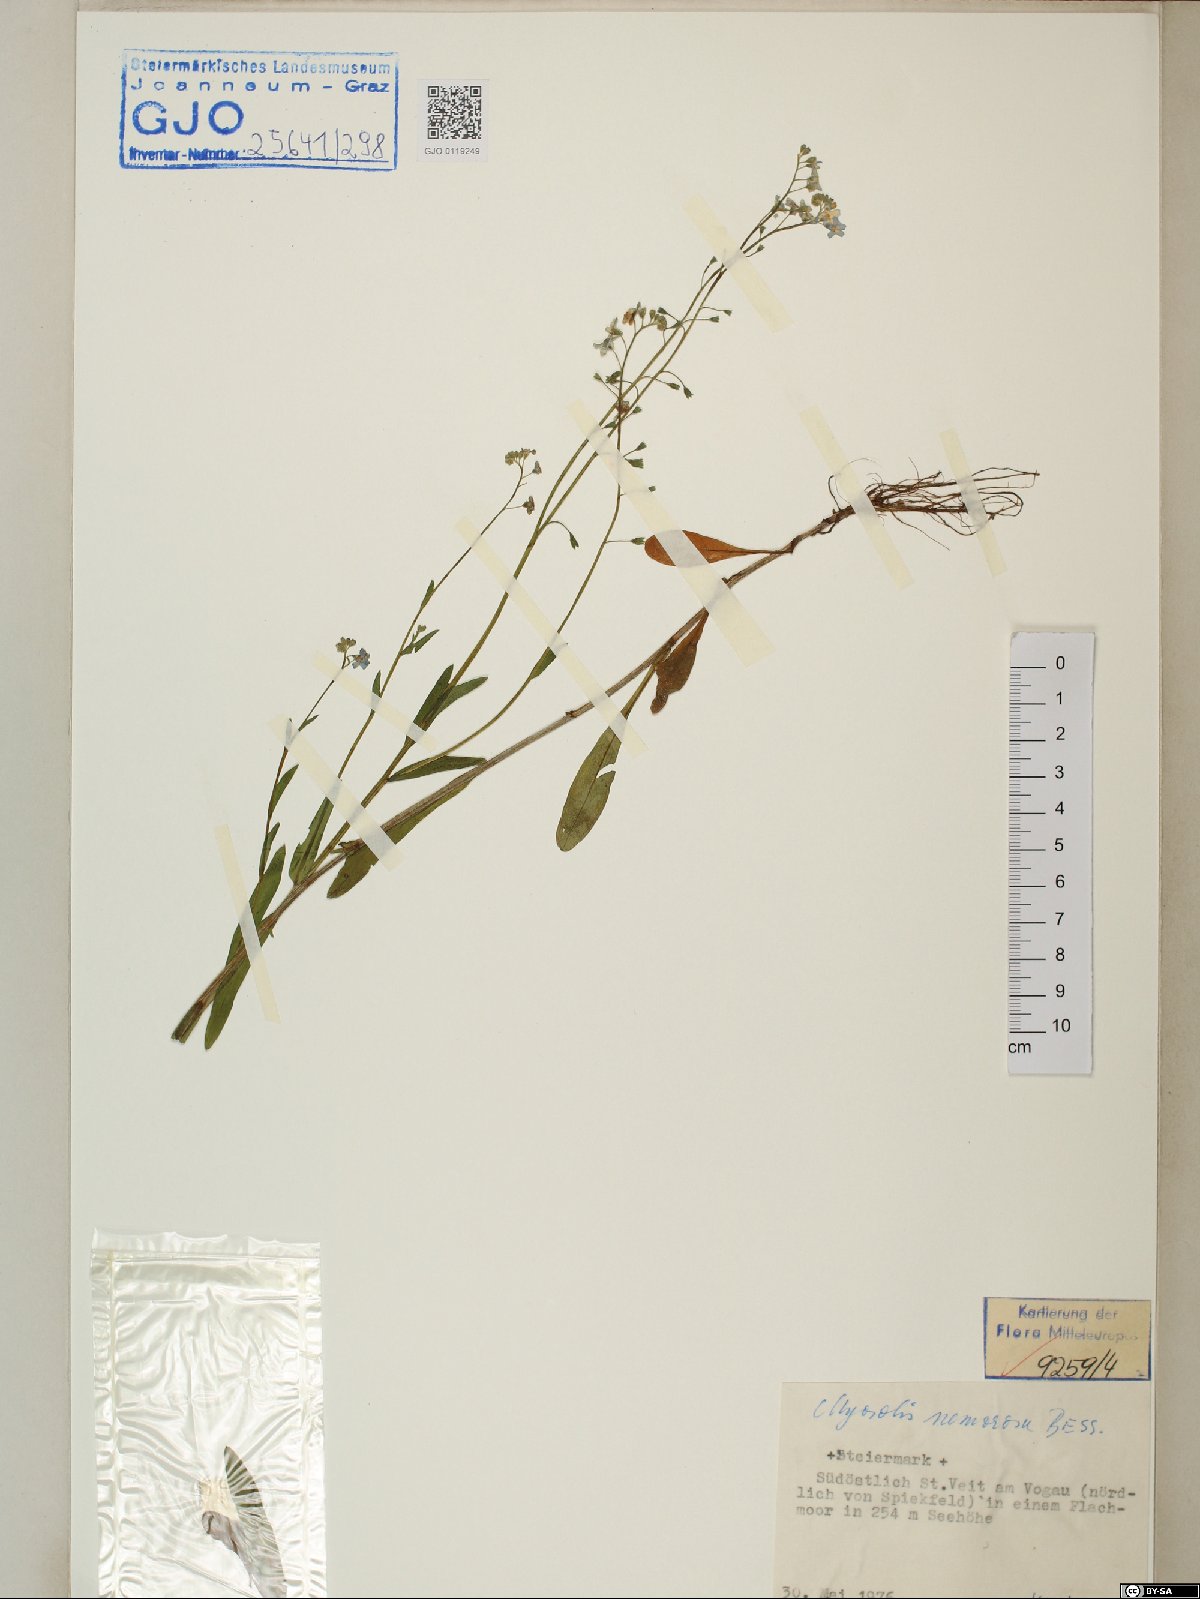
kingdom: Plantae
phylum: Tracheophyta
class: Magnoliopsida
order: Boraginales
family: Boraginaceae
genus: Myosotis
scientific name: Myosotis nemorosa
